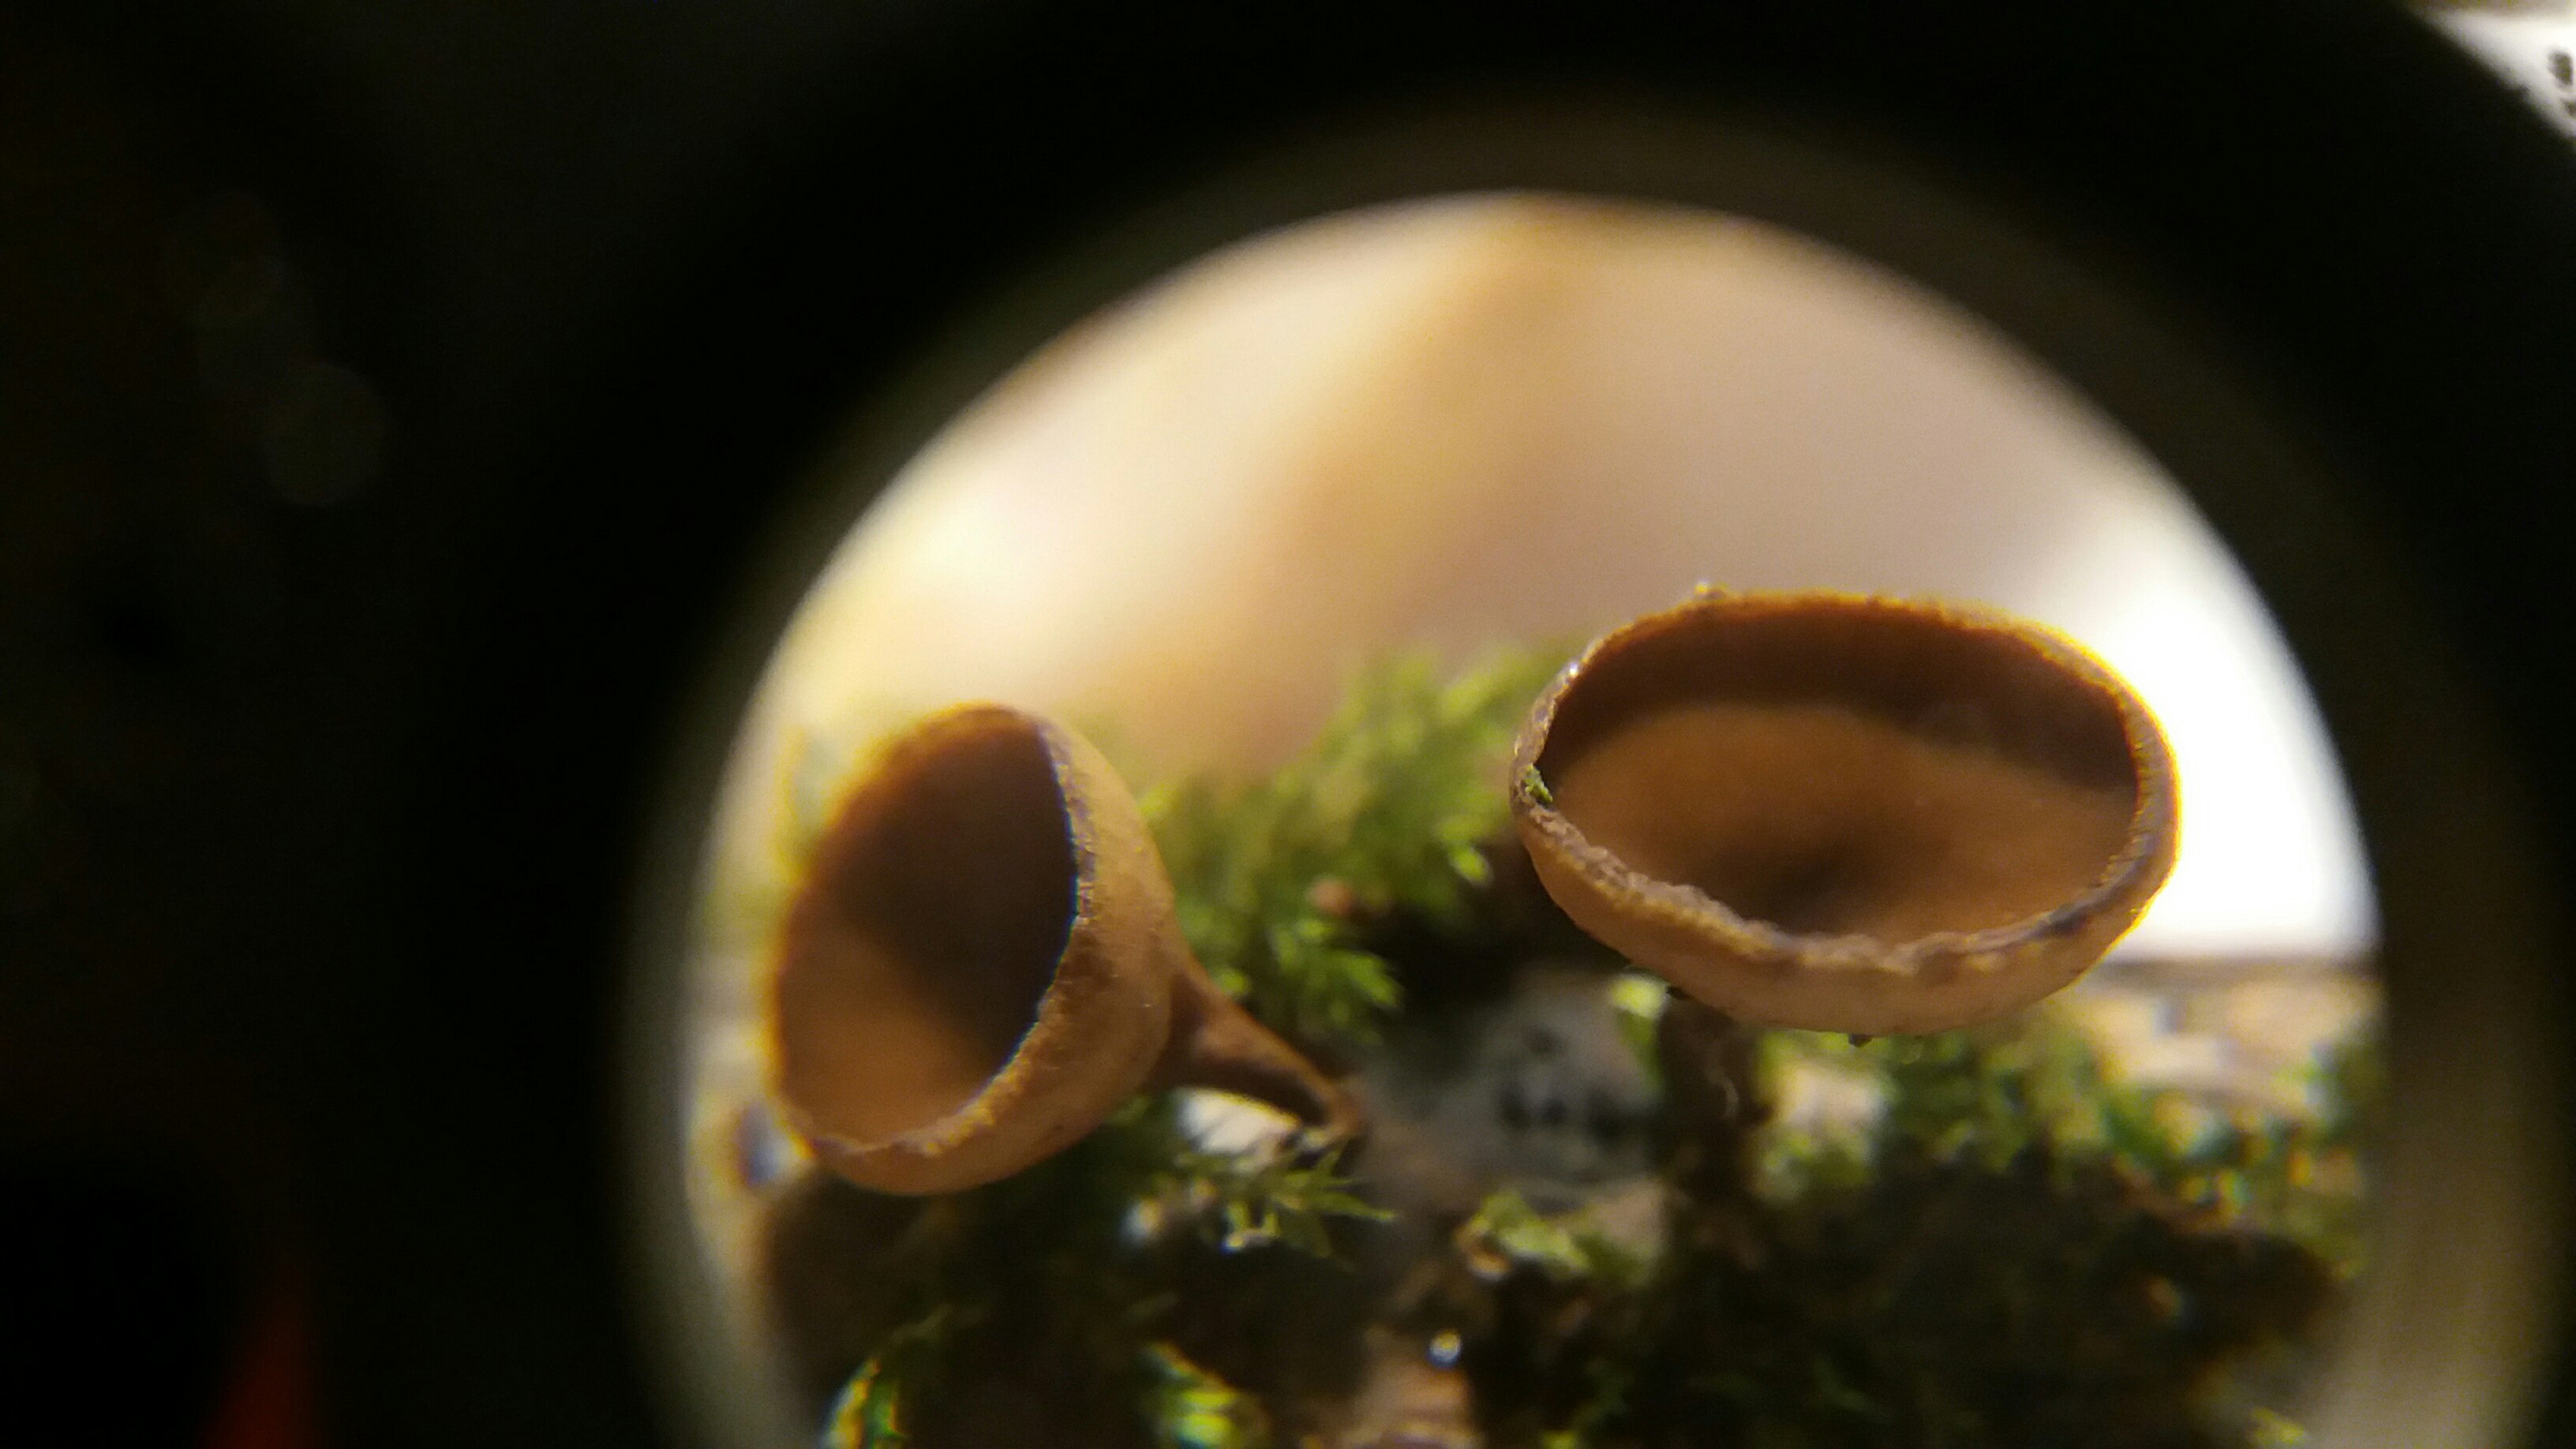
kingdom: Fungi
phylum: Ascomycota
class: Leotiomycetes
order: Helotiales
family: Rutstroemiaceae
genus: Rutstroemia
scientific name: Rutstroemia firma
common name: gren-brunskive
